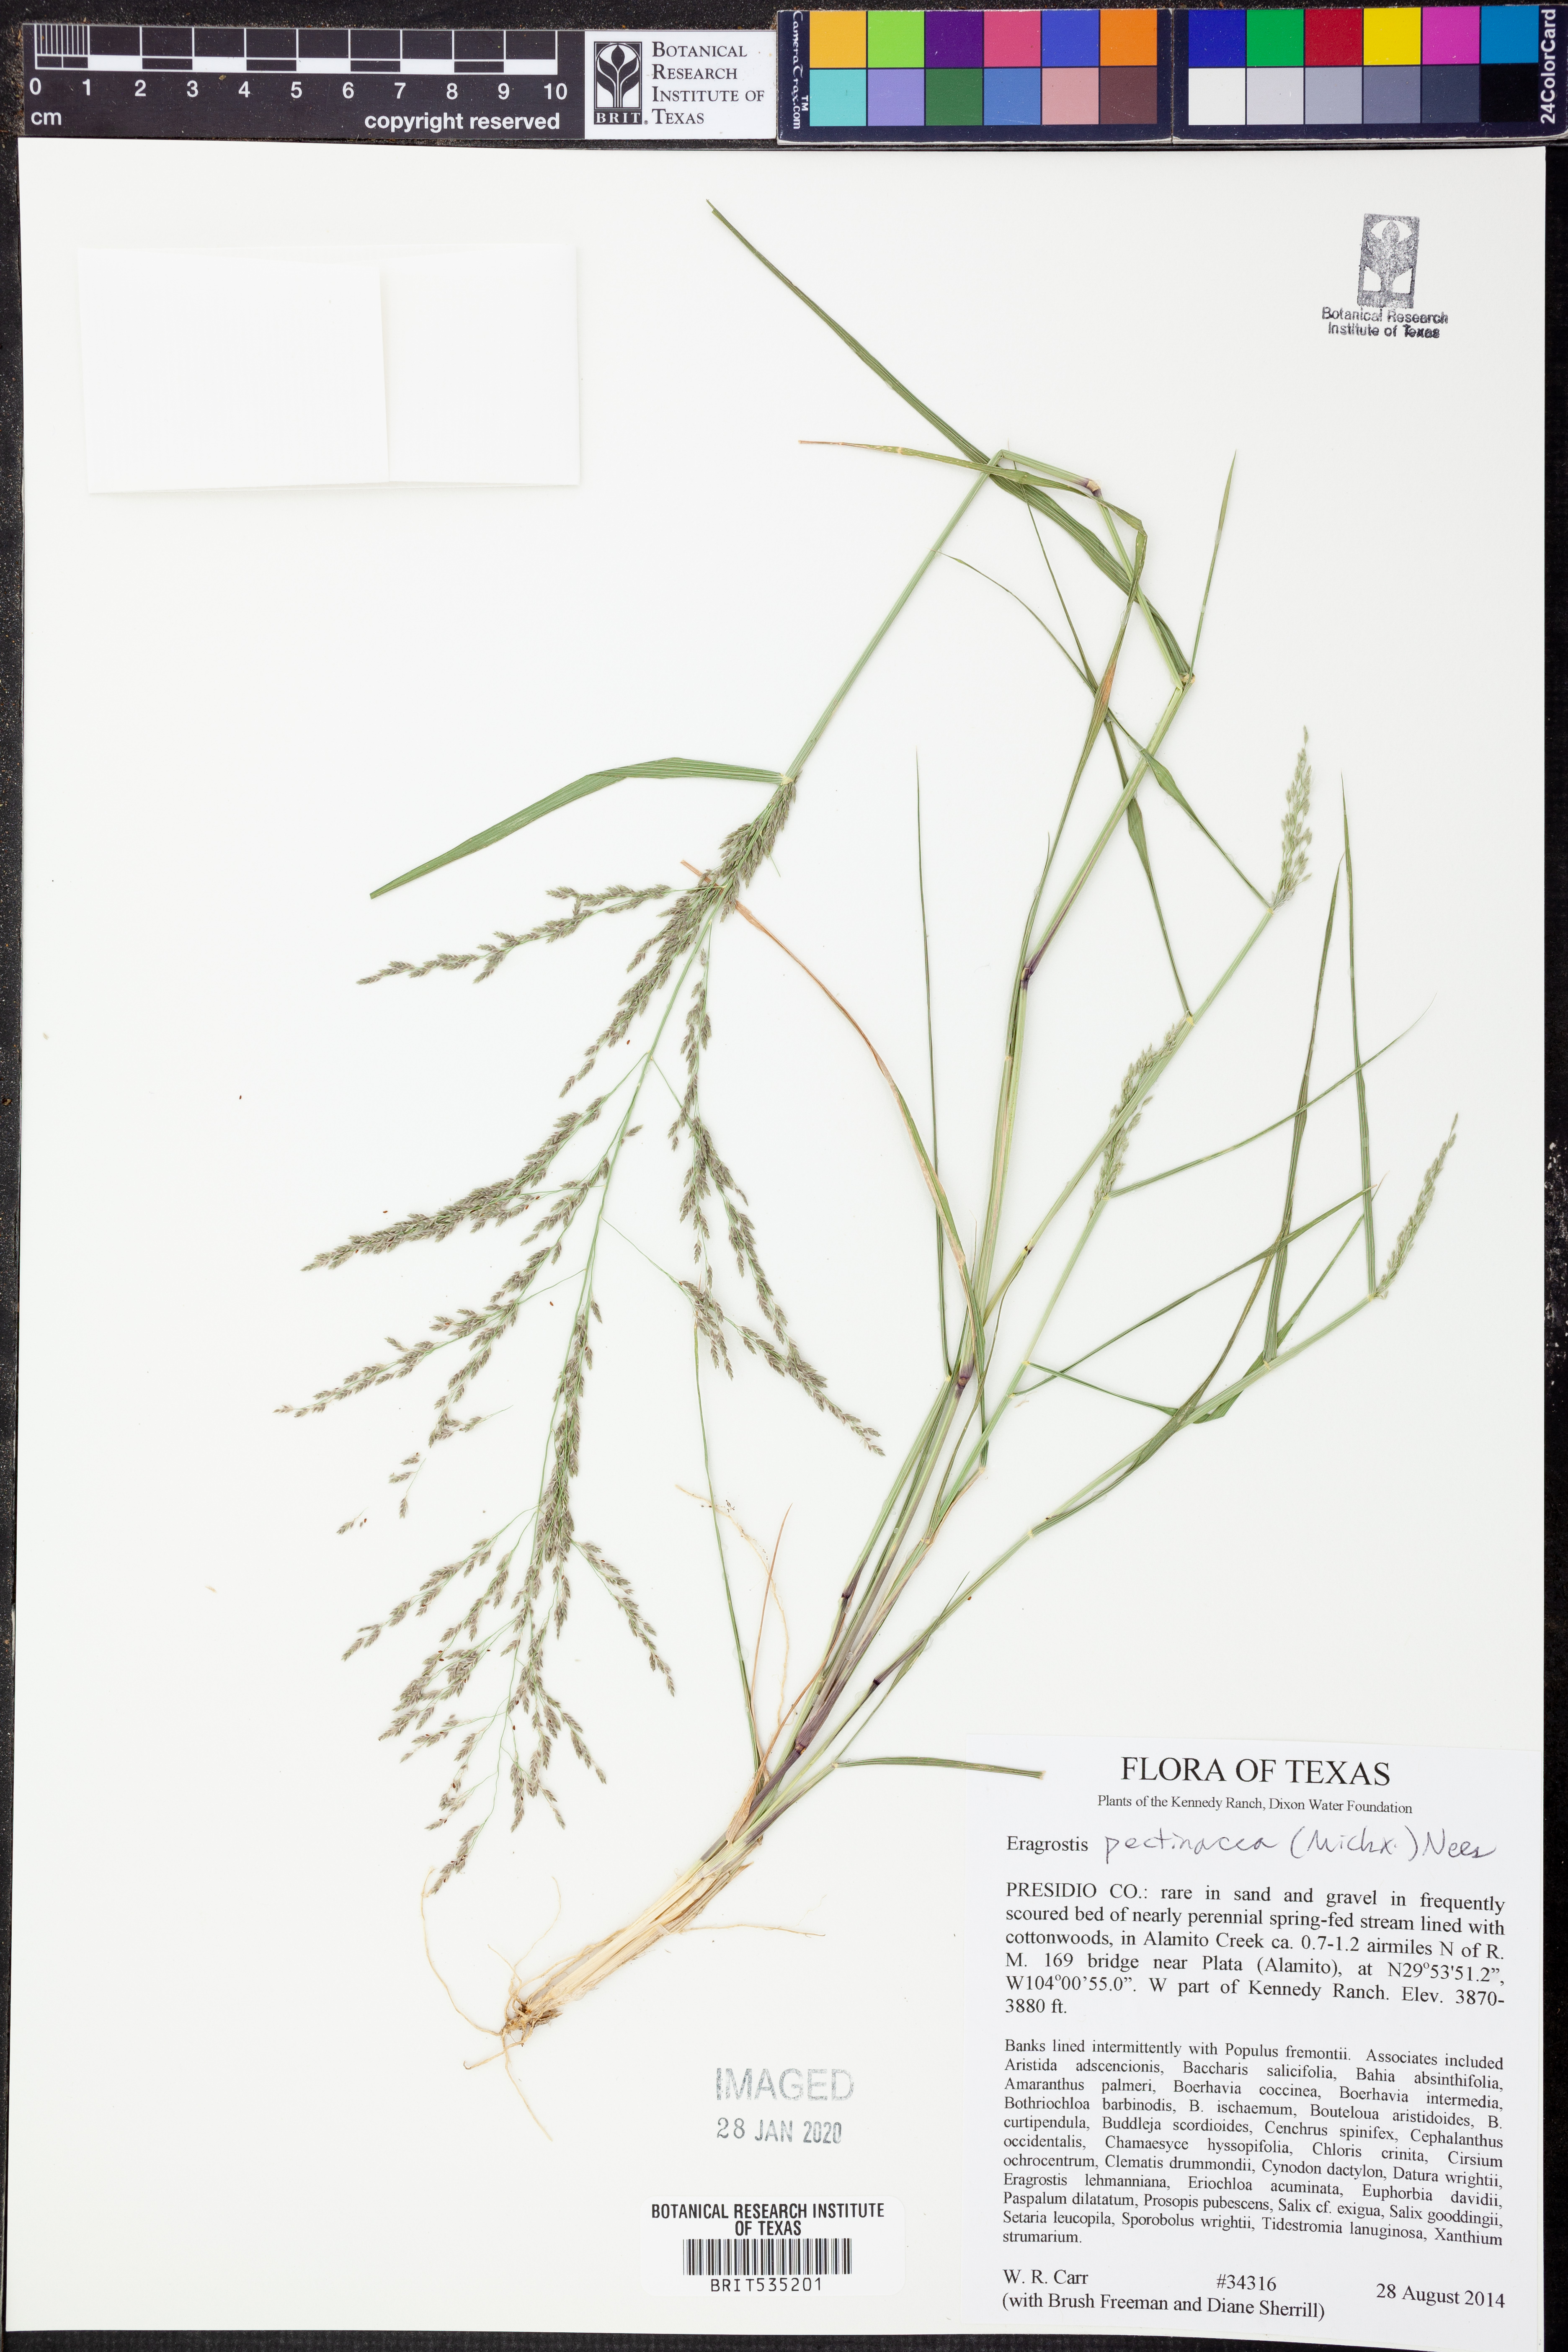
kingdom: Plantae
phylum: Tracheophyta
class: Liliopsida
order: Poales
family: Poaceae
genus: Eragrostis
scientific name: Eragrostis pectinacea
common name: Tufted lovegrass
